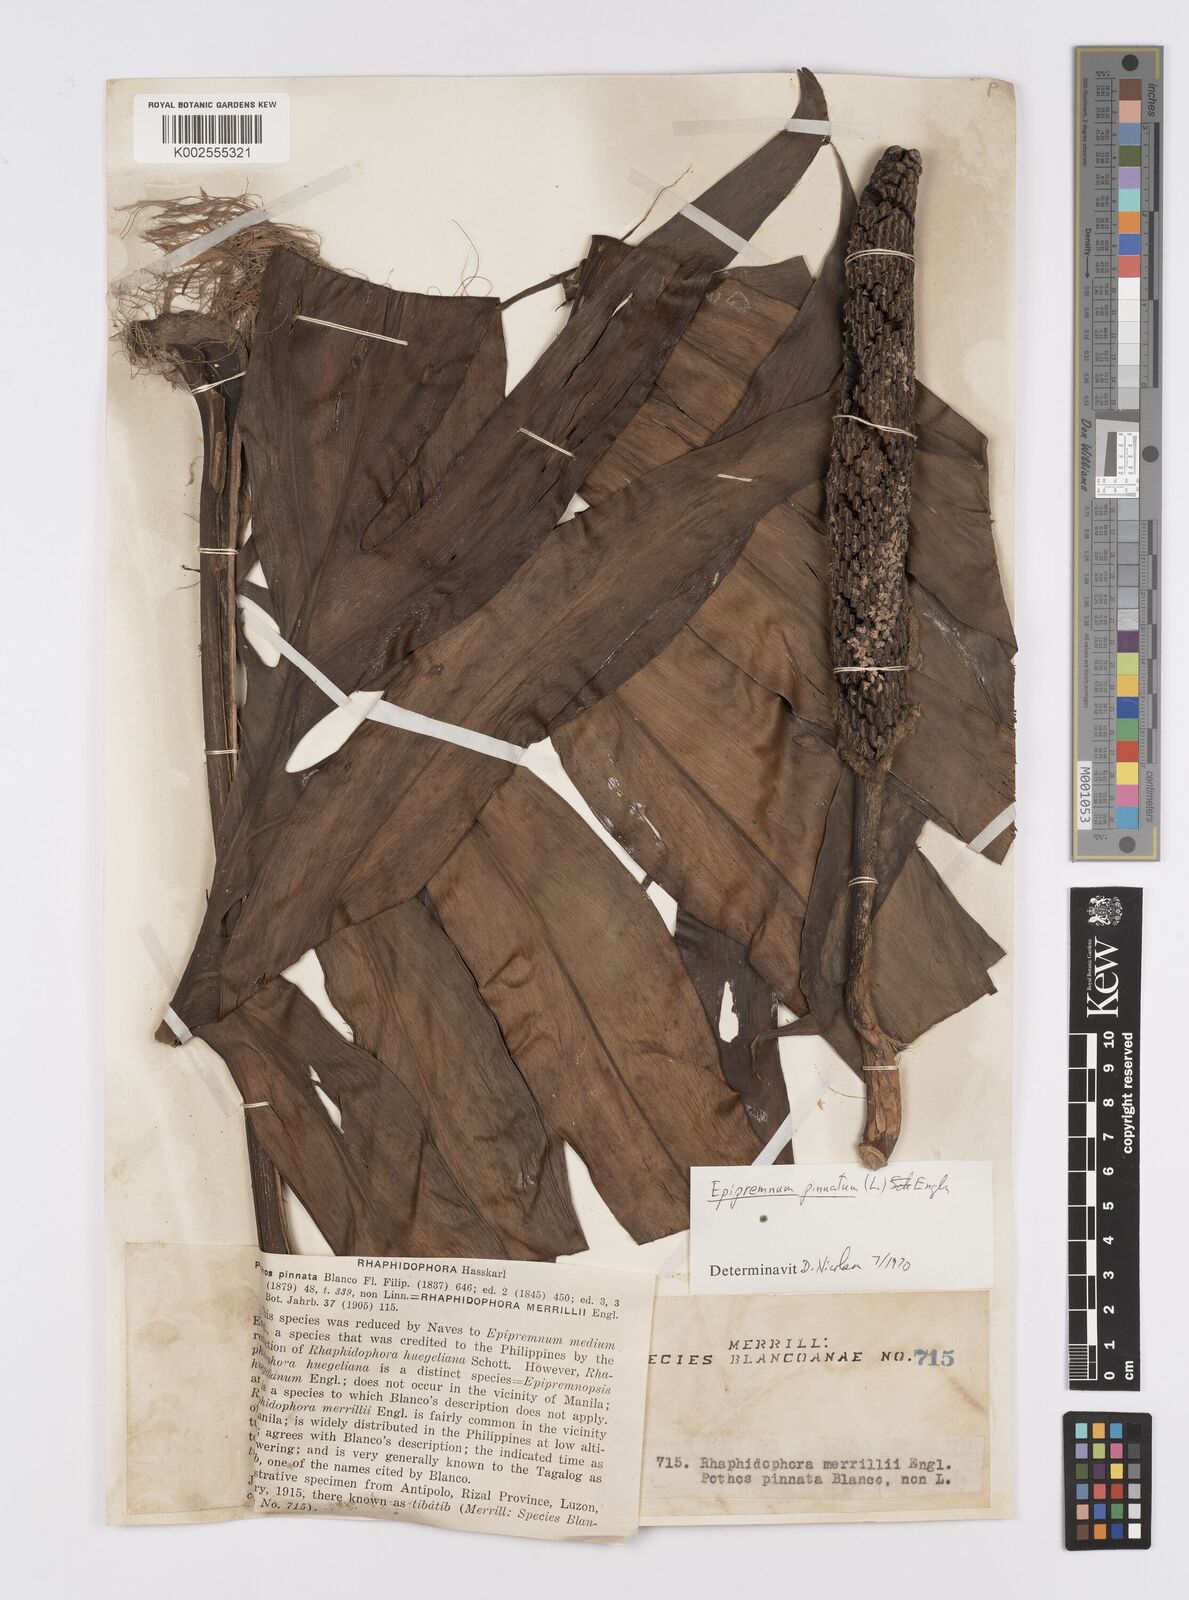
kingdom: Plantae
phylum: Tracheophyta
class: Liliopsida
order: Alismatales
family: Araceae
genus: Epipremnum
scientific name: Epipremnum pinnatum
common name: Centipede tongavine
